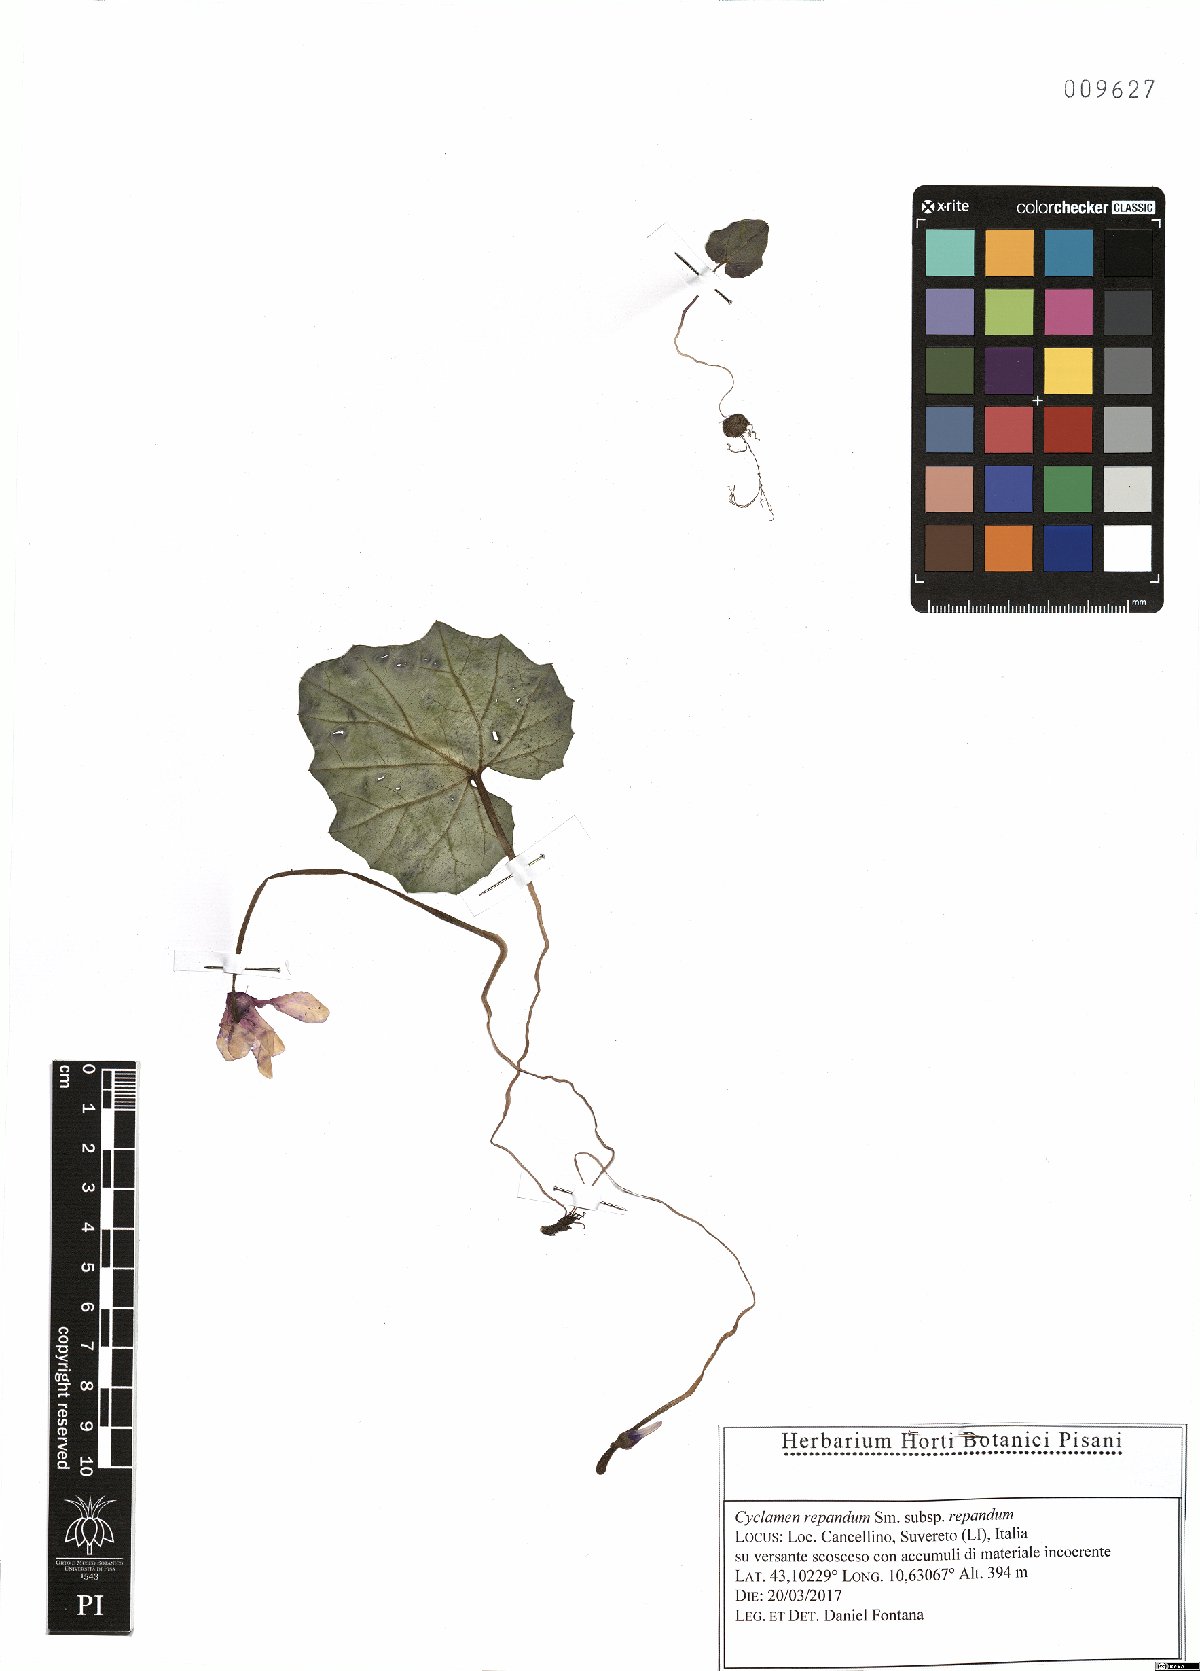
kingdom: Plantae
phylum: Tracheophyta
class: Magnoliopsida
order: Ericales
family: Primulaceae
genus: Cyclamen
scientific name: Cyclamen repandum
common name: Spring sowbread
